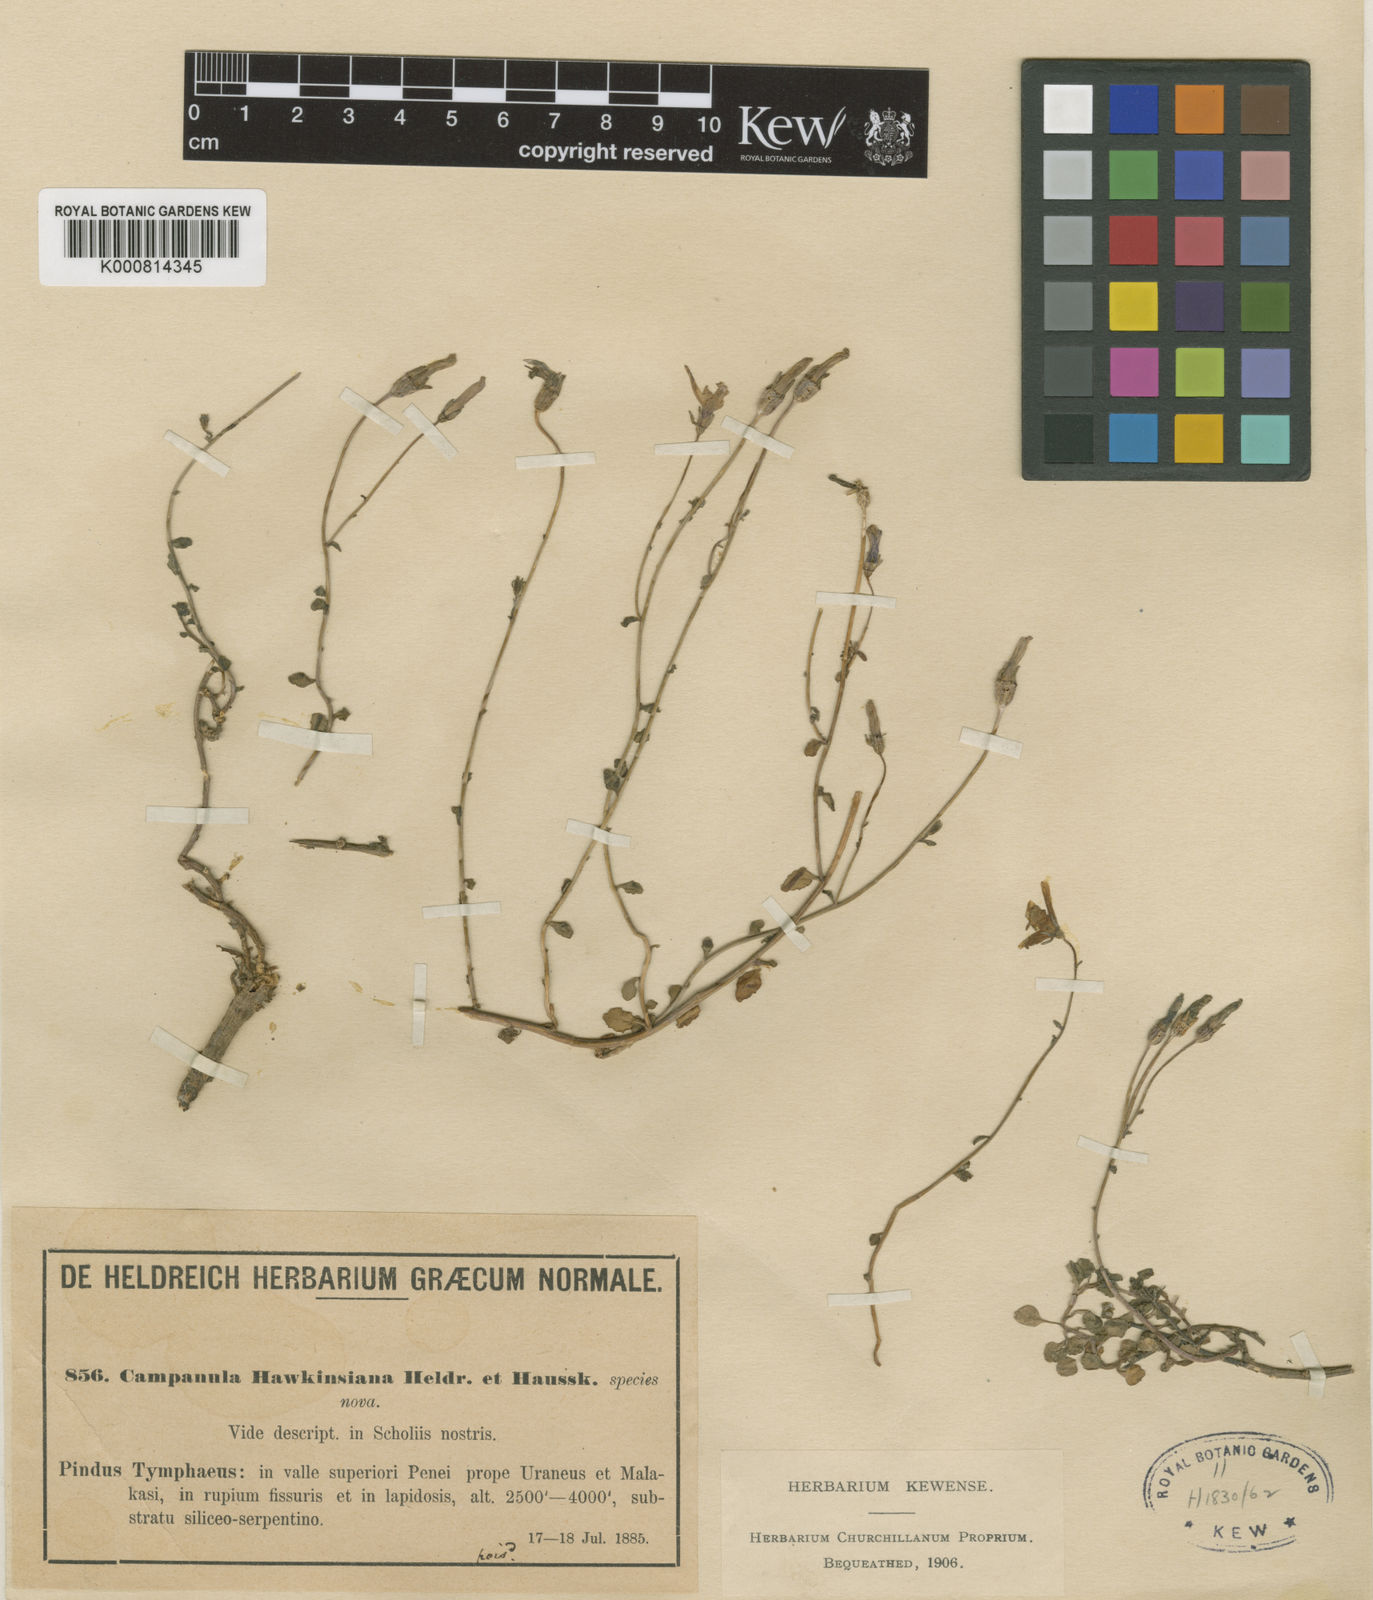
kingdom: Plantae
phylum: Tracheophyta
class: Magnoliopsida
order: Asterales
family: Campanulaceae
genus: Campanula
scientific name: Campanula hawkinsiana
